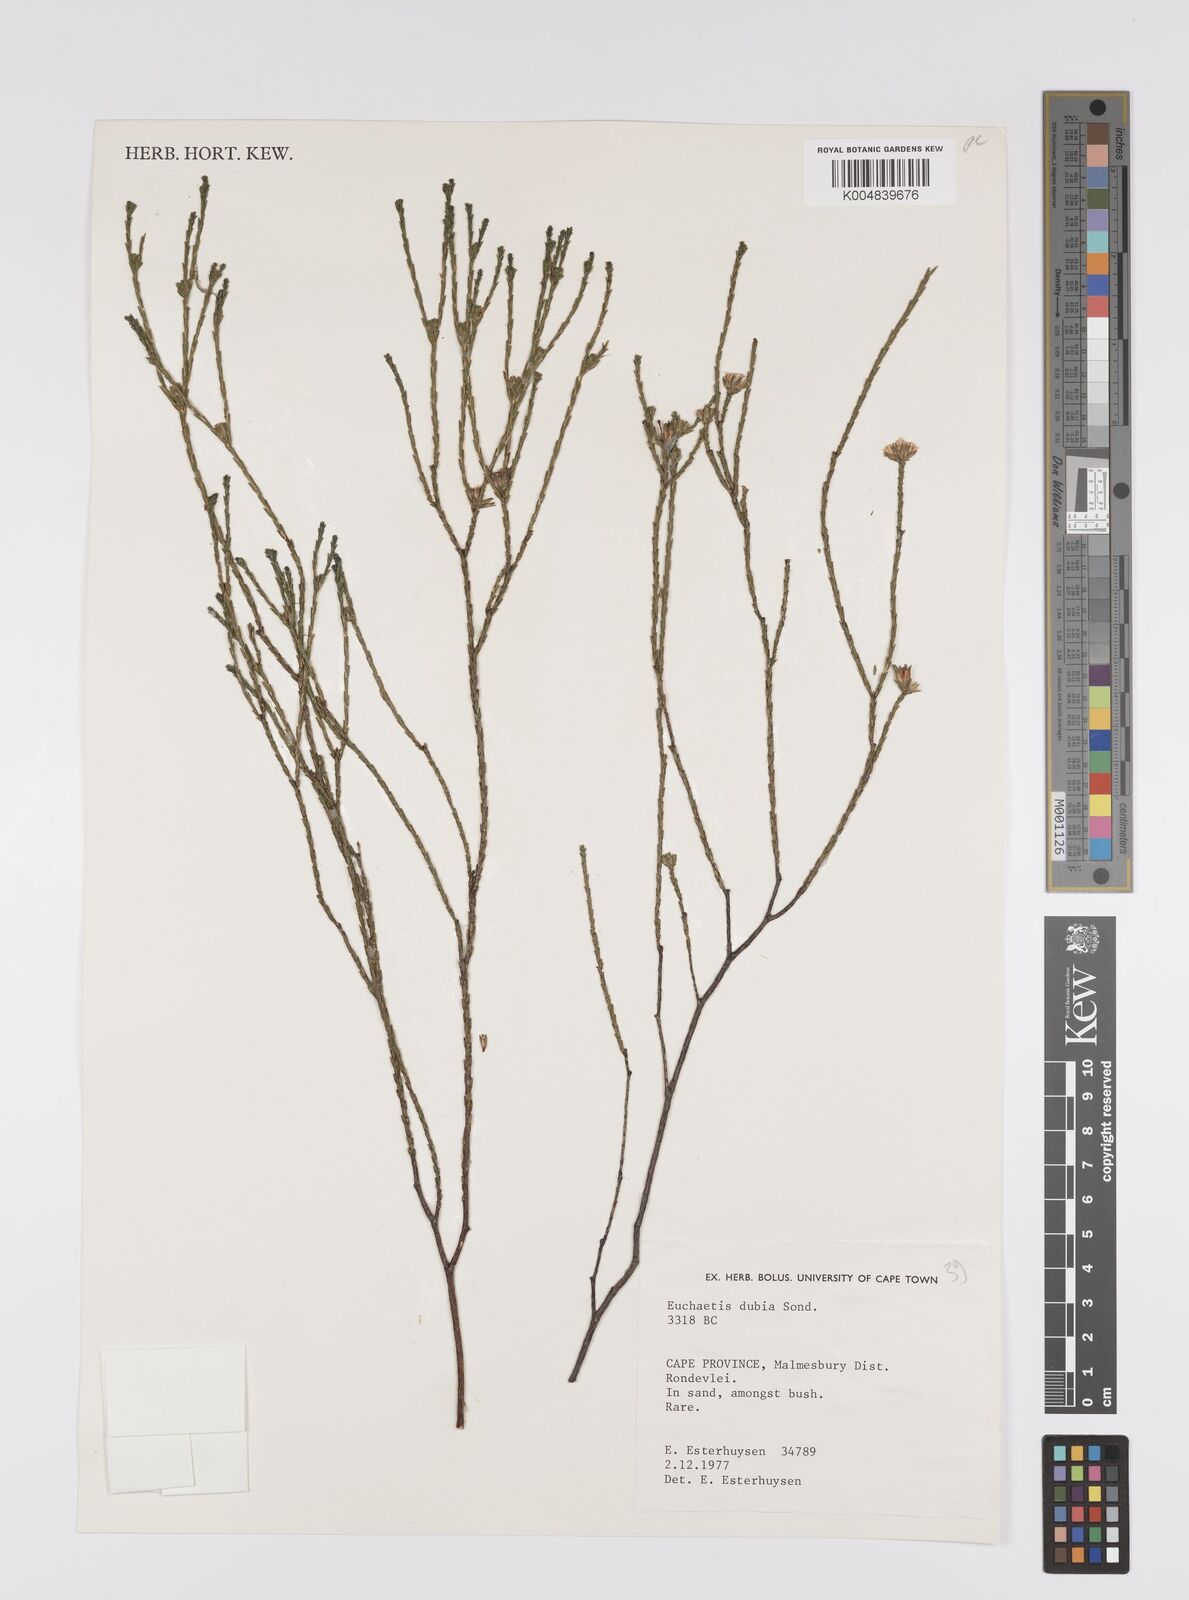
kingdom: Plantae
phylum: Tracheophyta
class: Magnoliopsida
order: Sapindales
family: Rutaceae
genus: Macrostylis
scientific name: Macrostylis cassiopoides
